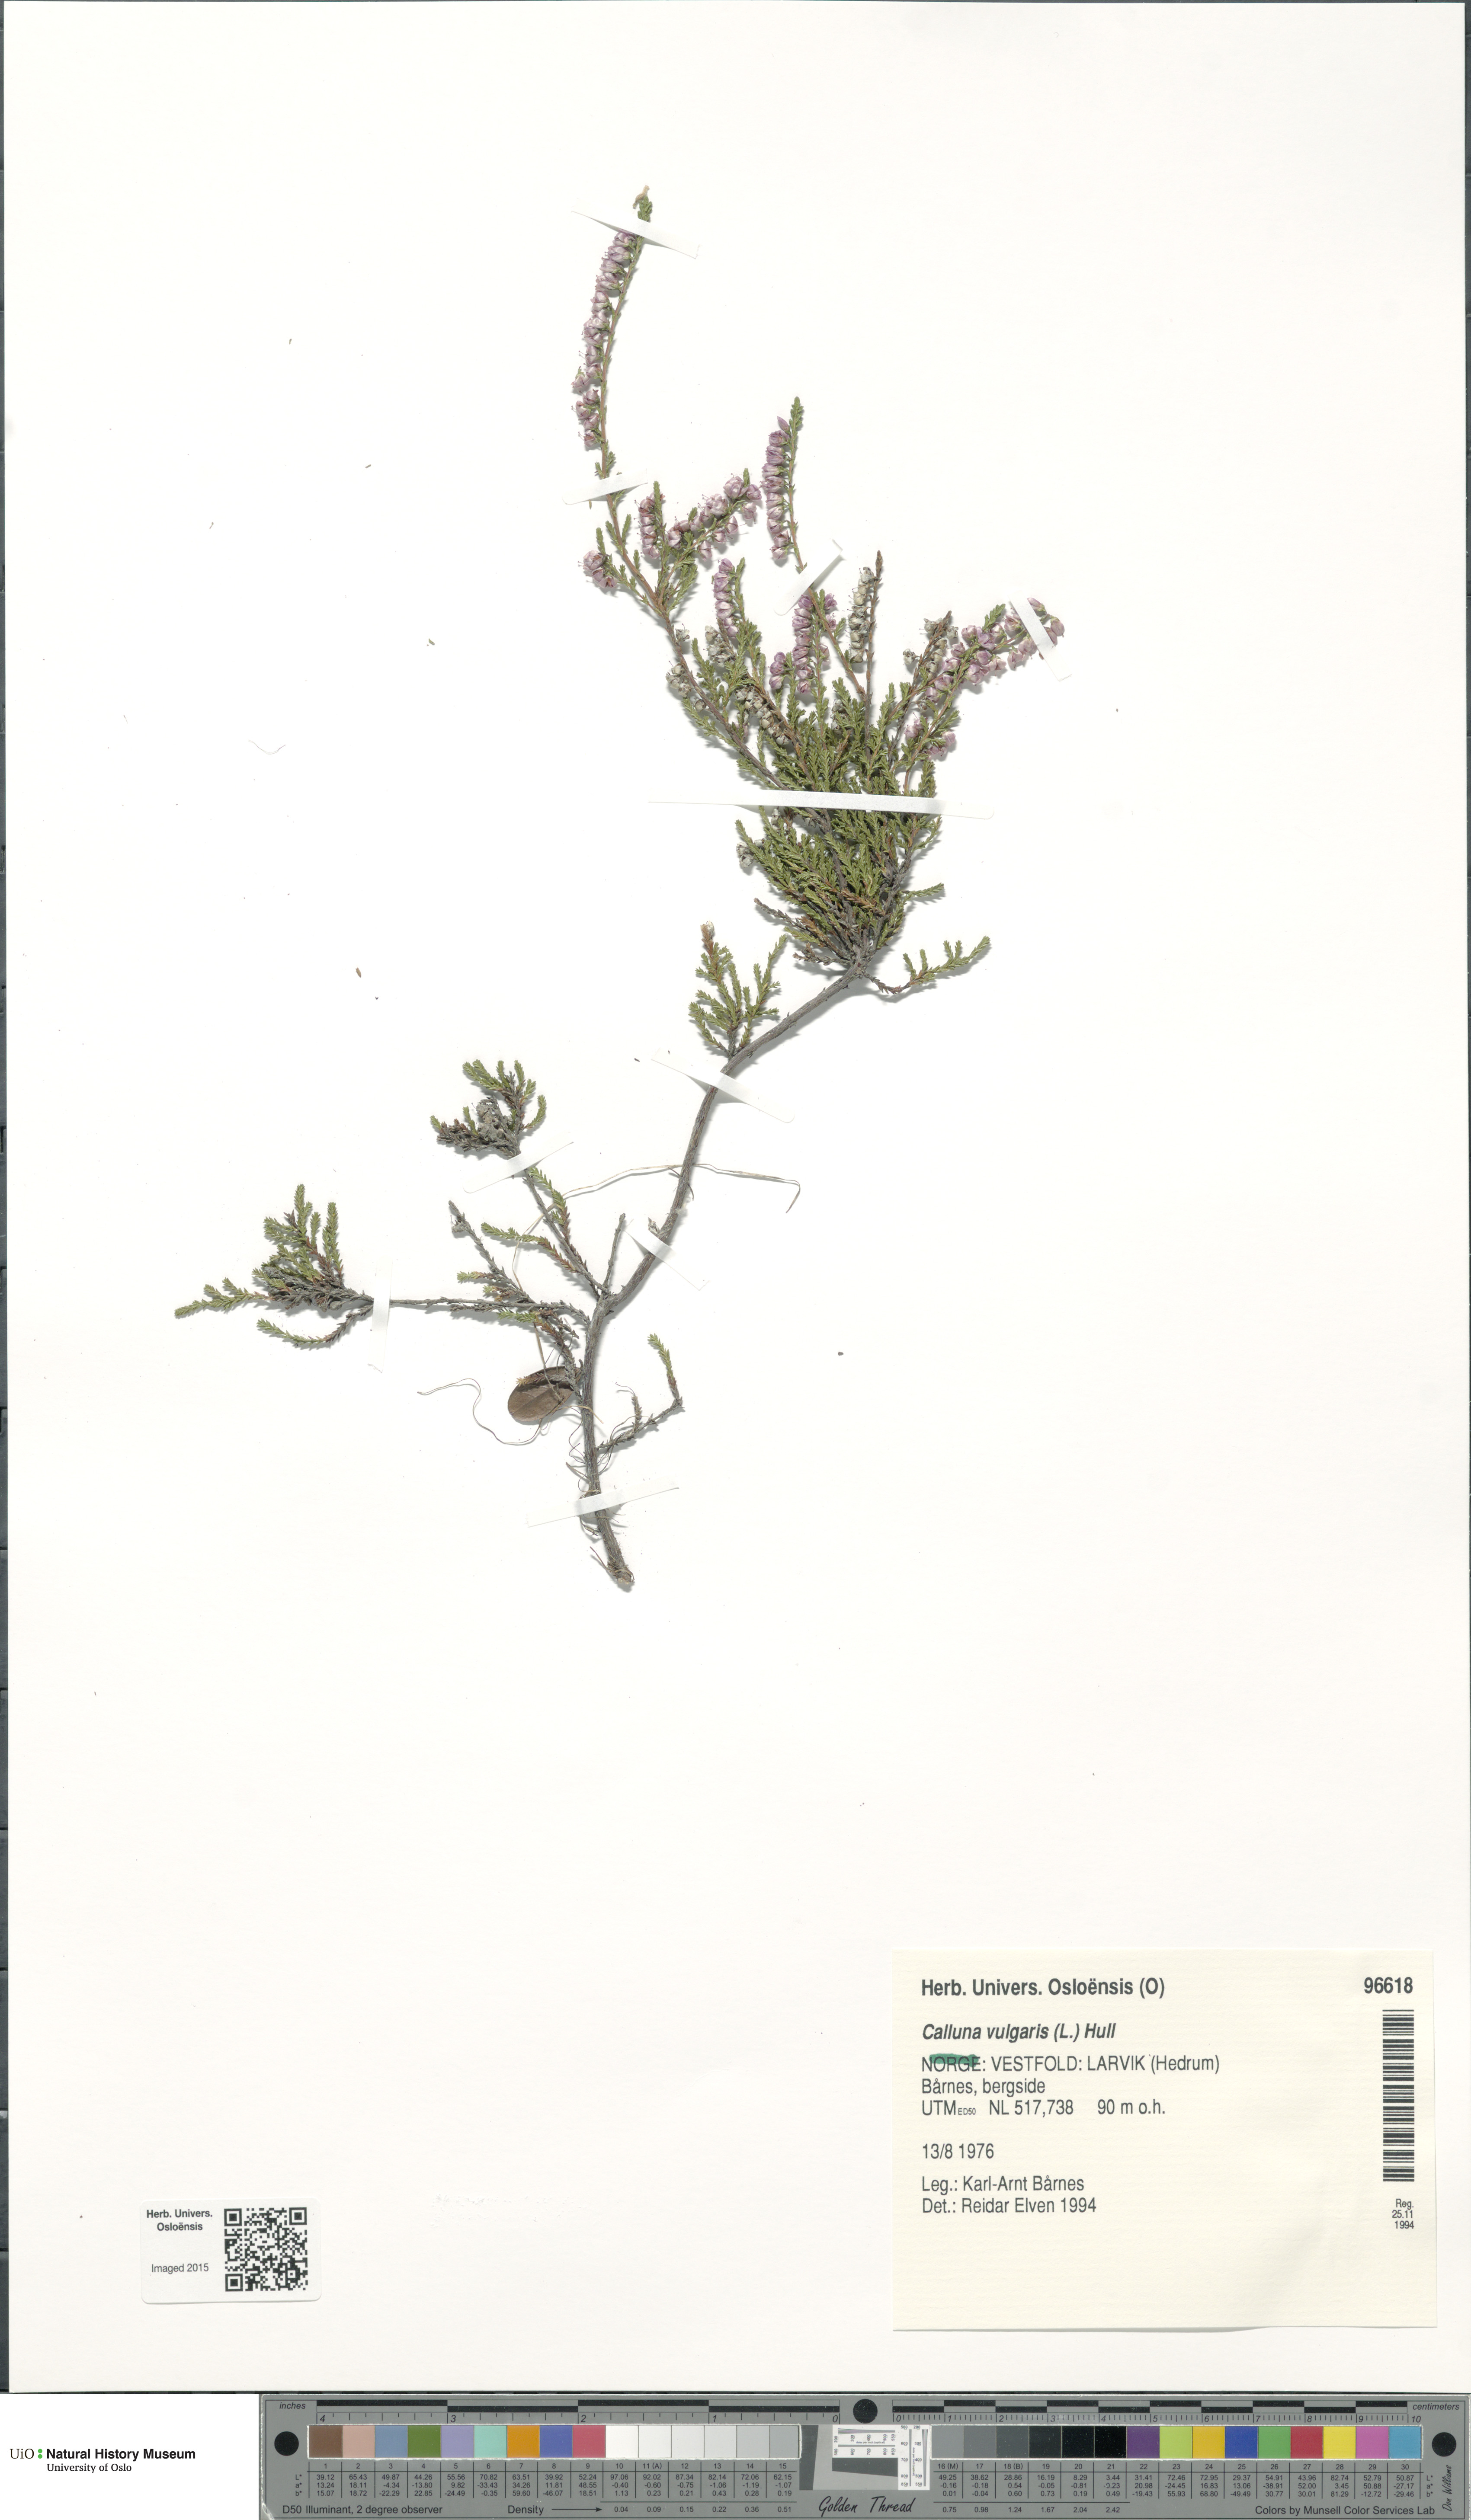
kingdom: Plantae
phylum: Tracheophyta
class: Magnoliopsida
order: Ericales
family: Ericaceae
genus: Calluna
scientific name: Calluna vulgaris
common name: Heather
